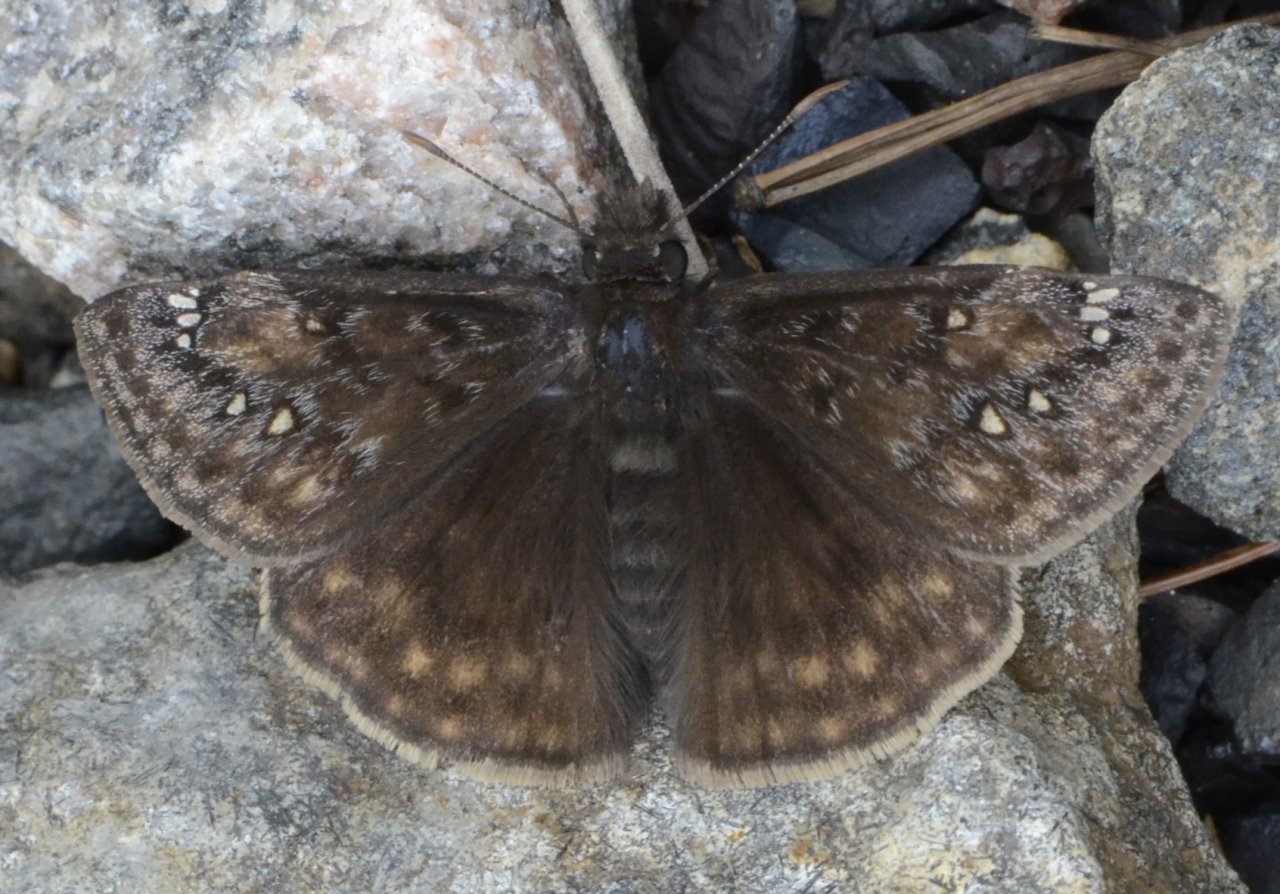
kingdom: Animalia
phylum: Arthropoda
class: Insecta
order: Lepidoptera
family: Hesperiidae
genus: Gesta
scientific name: Gesta
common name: Juvenal's Duskywing
